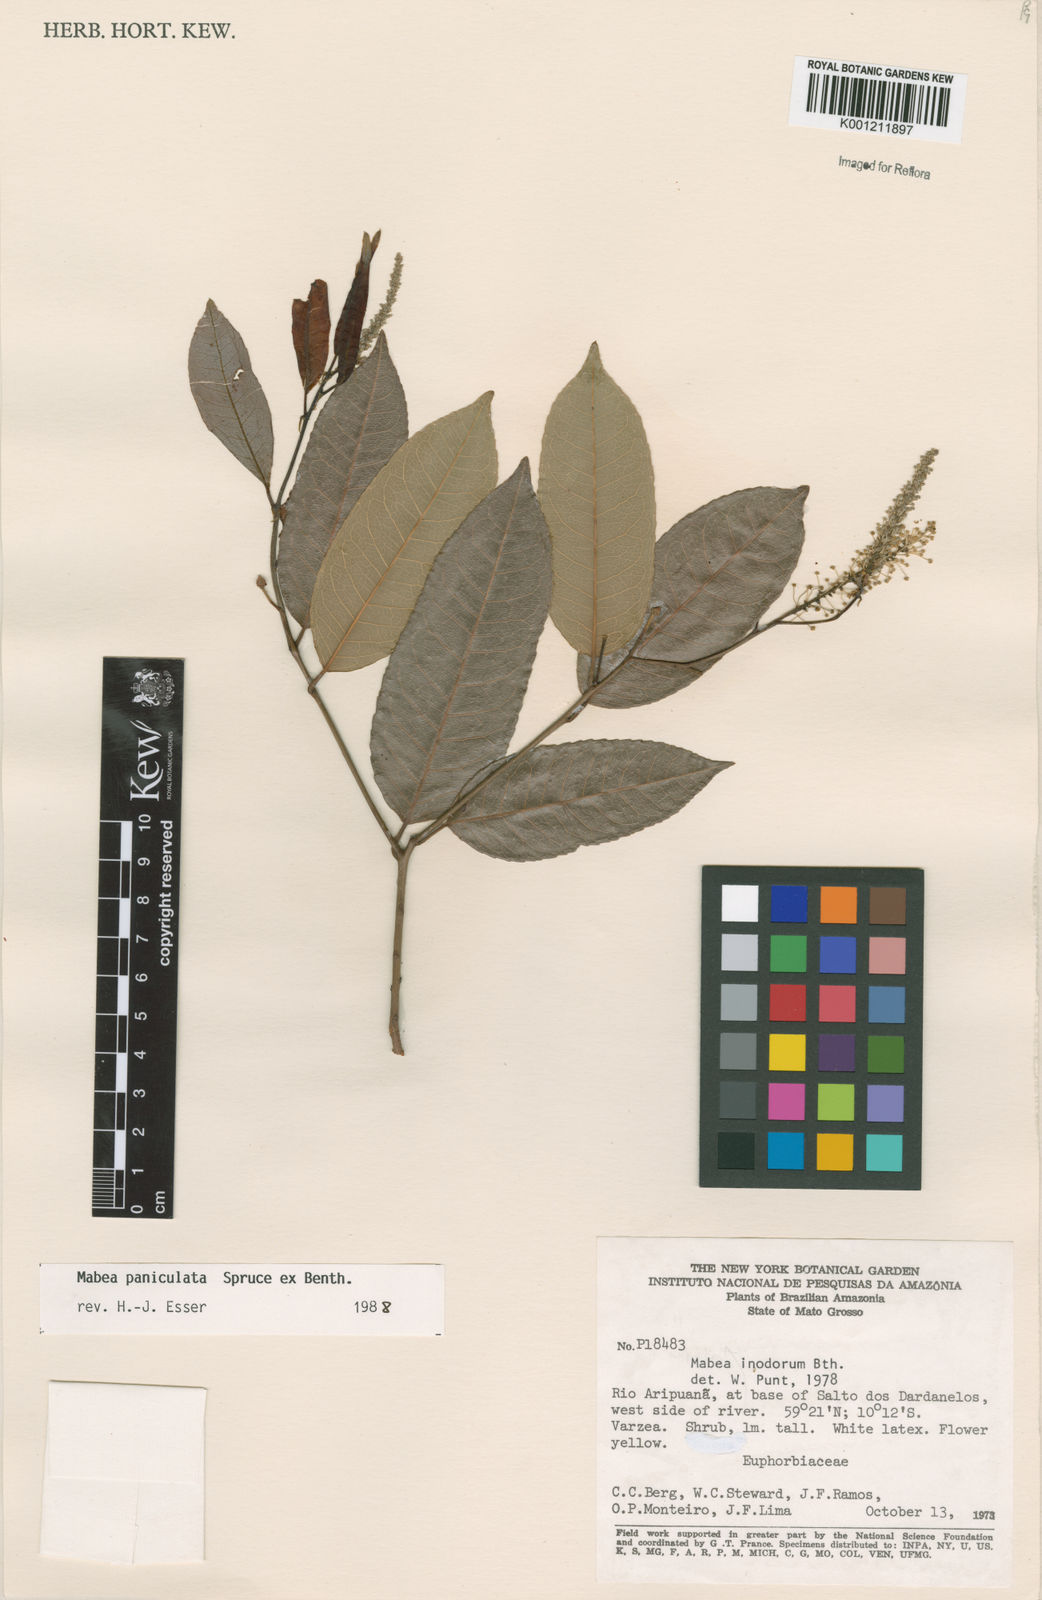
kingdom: Plantae
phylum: Tracheophyta
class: Magnoliopsida
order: Malpighiales
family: Euphorbiaceae
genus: Mabea
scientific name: Mabea paniculata
